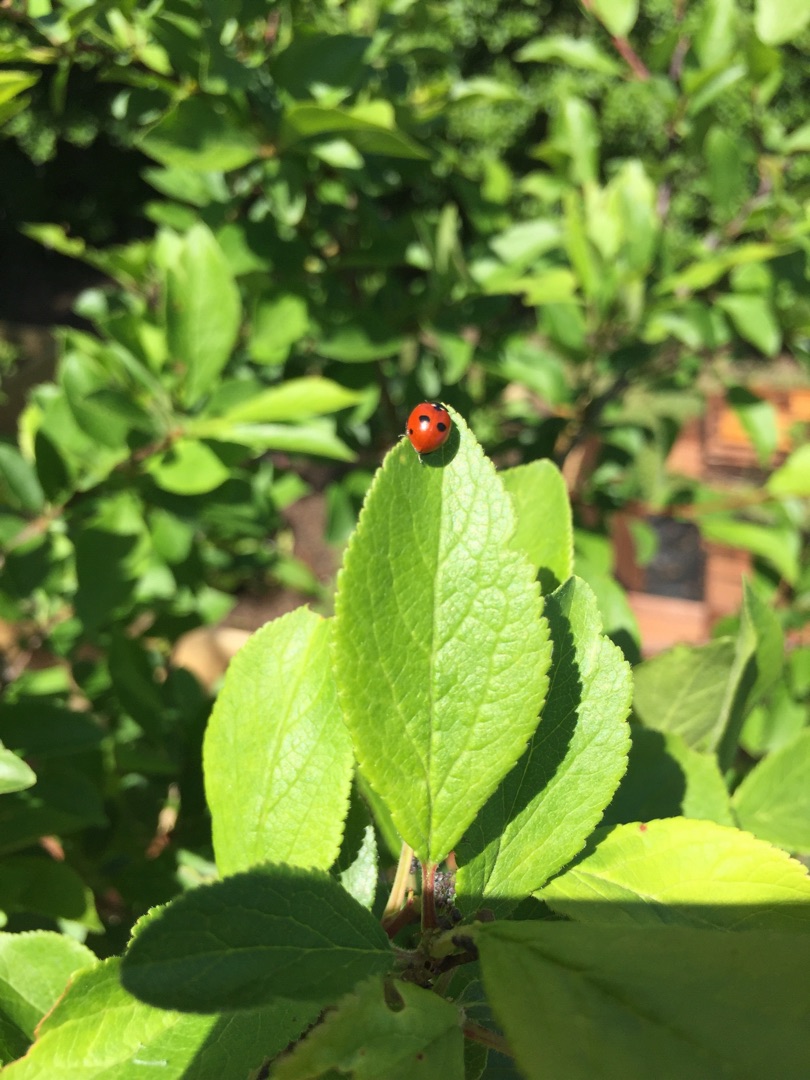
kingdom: Animalia
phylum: Arthropoda
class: Insecta
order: Coleoptera
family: Coccinellidae
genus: Coccinella
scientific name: Coccinella quinquepunctata
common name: Femplettet mariehøne
